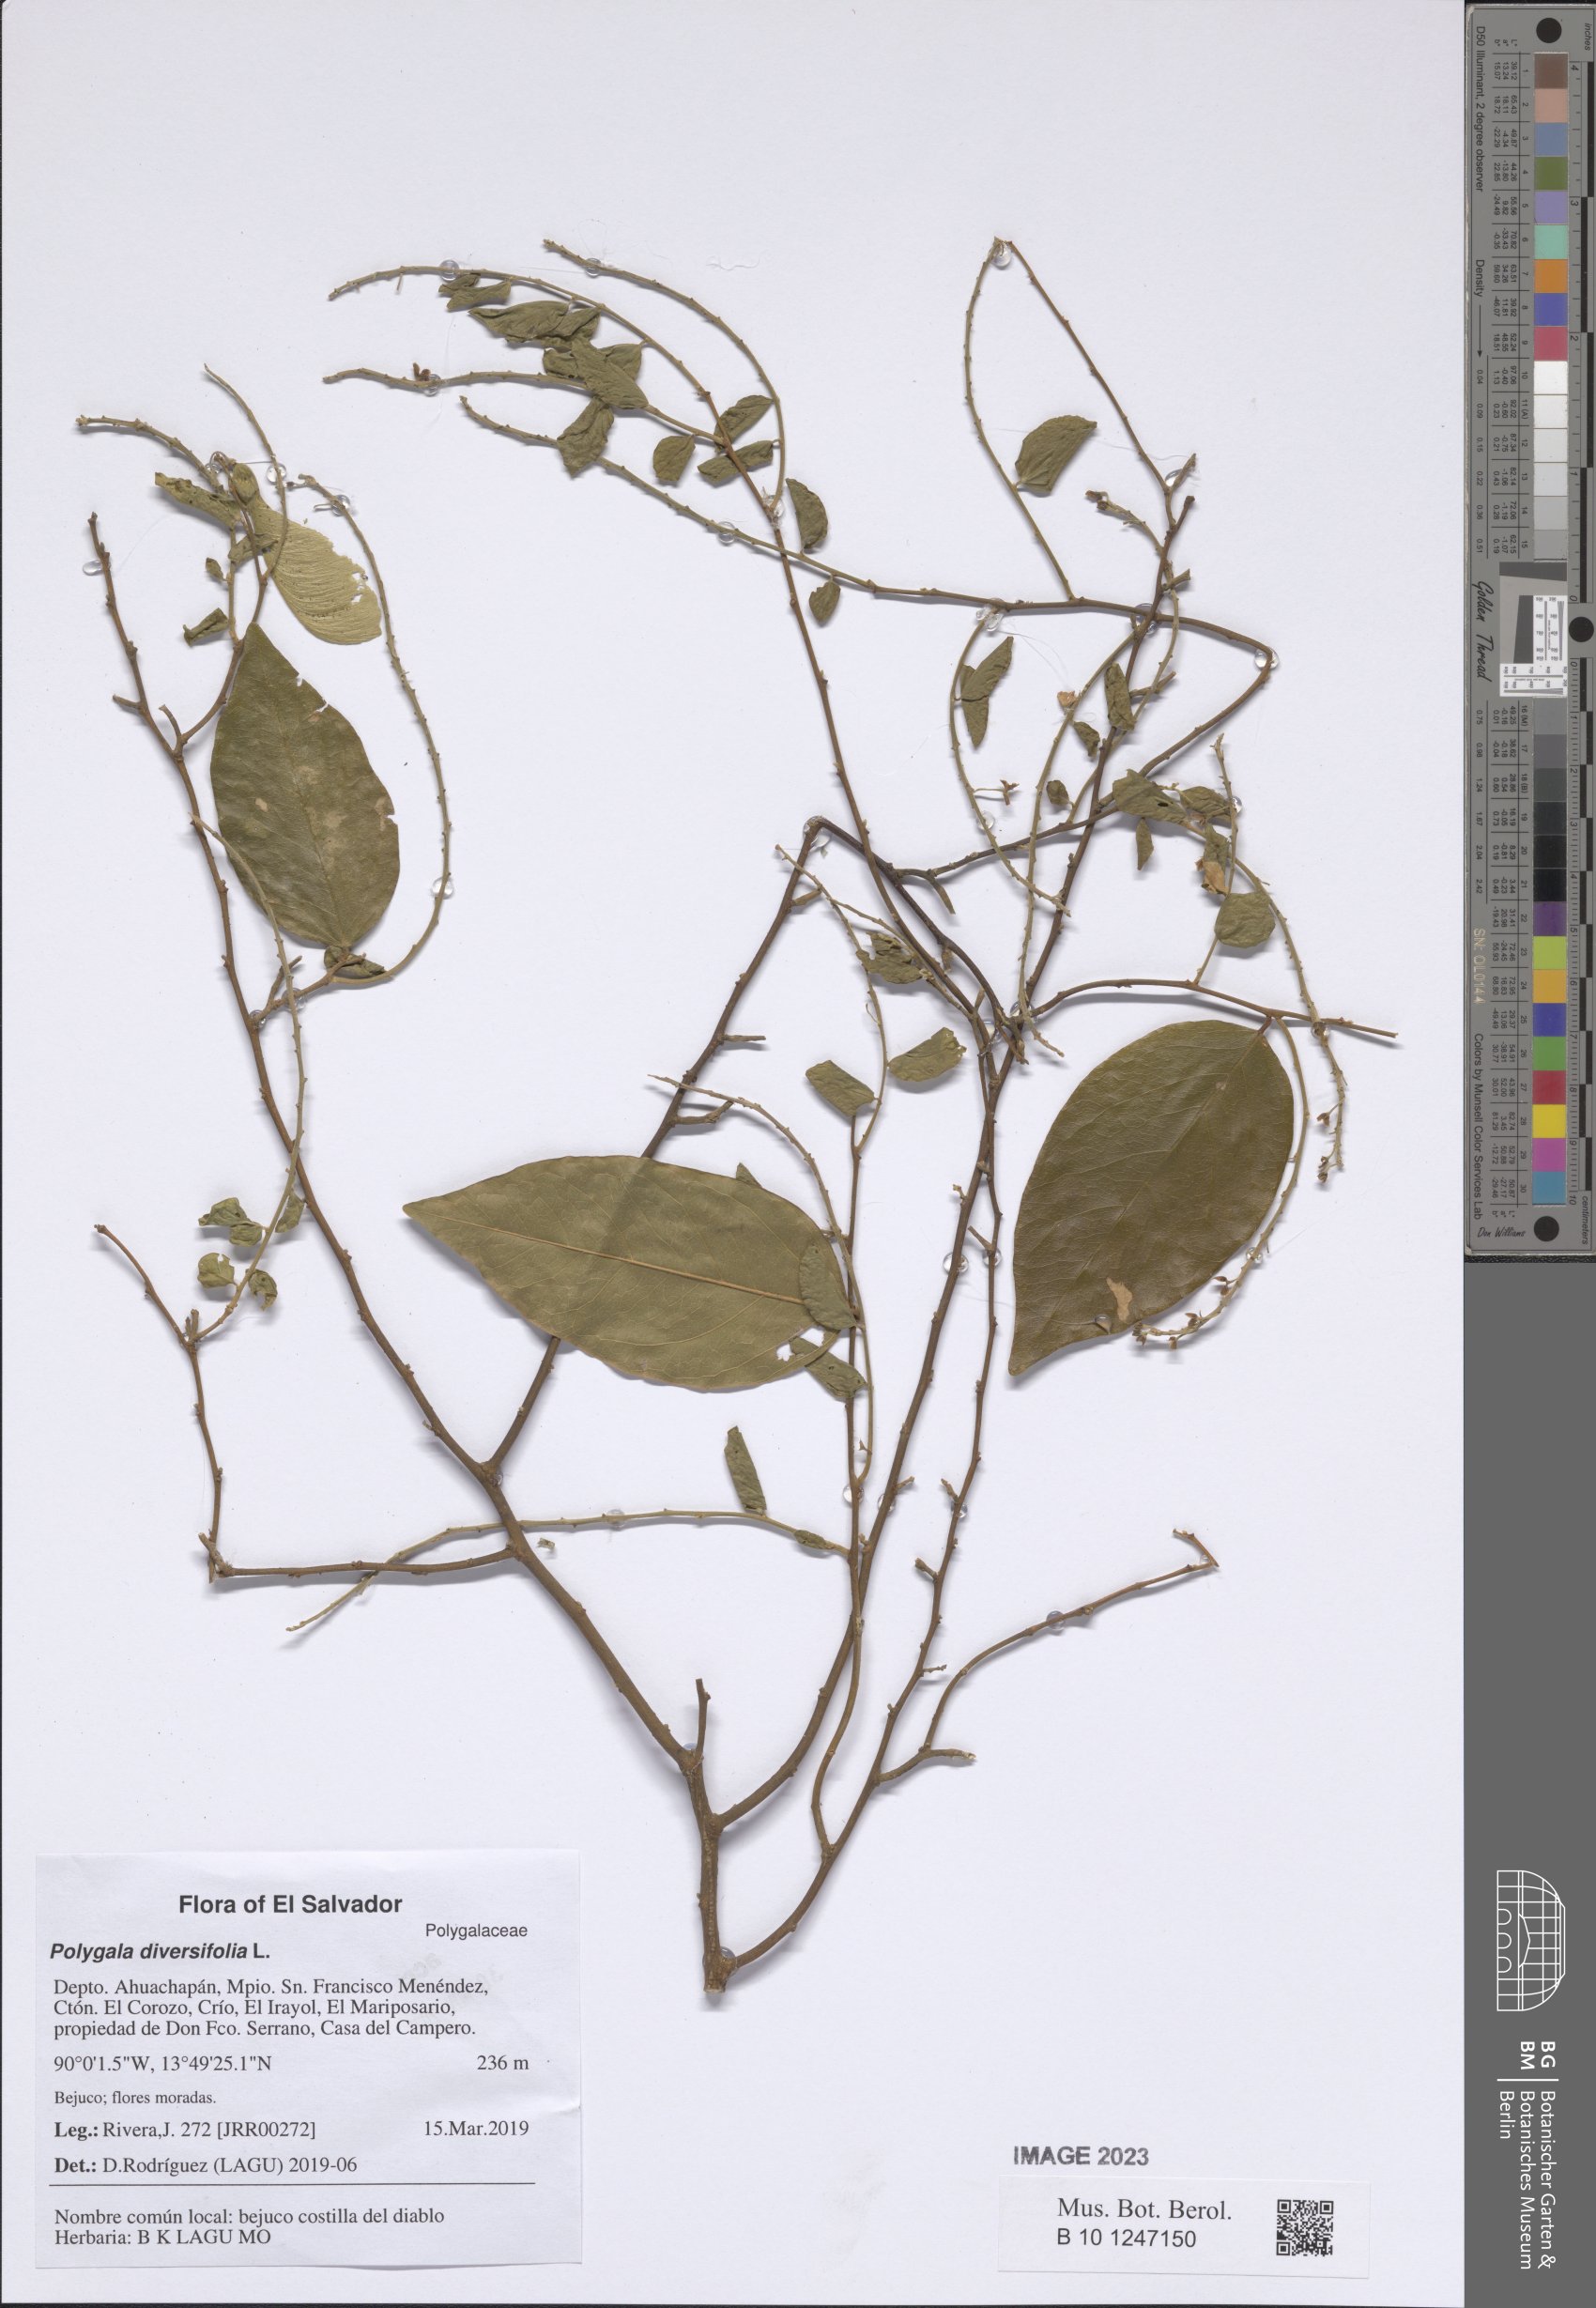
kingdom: Plantae
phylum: Tracheophyta
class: Magnoliopsida
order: Fabales
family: Polygalaceae
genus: Securidaca
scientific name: Securidaca diversifolia
